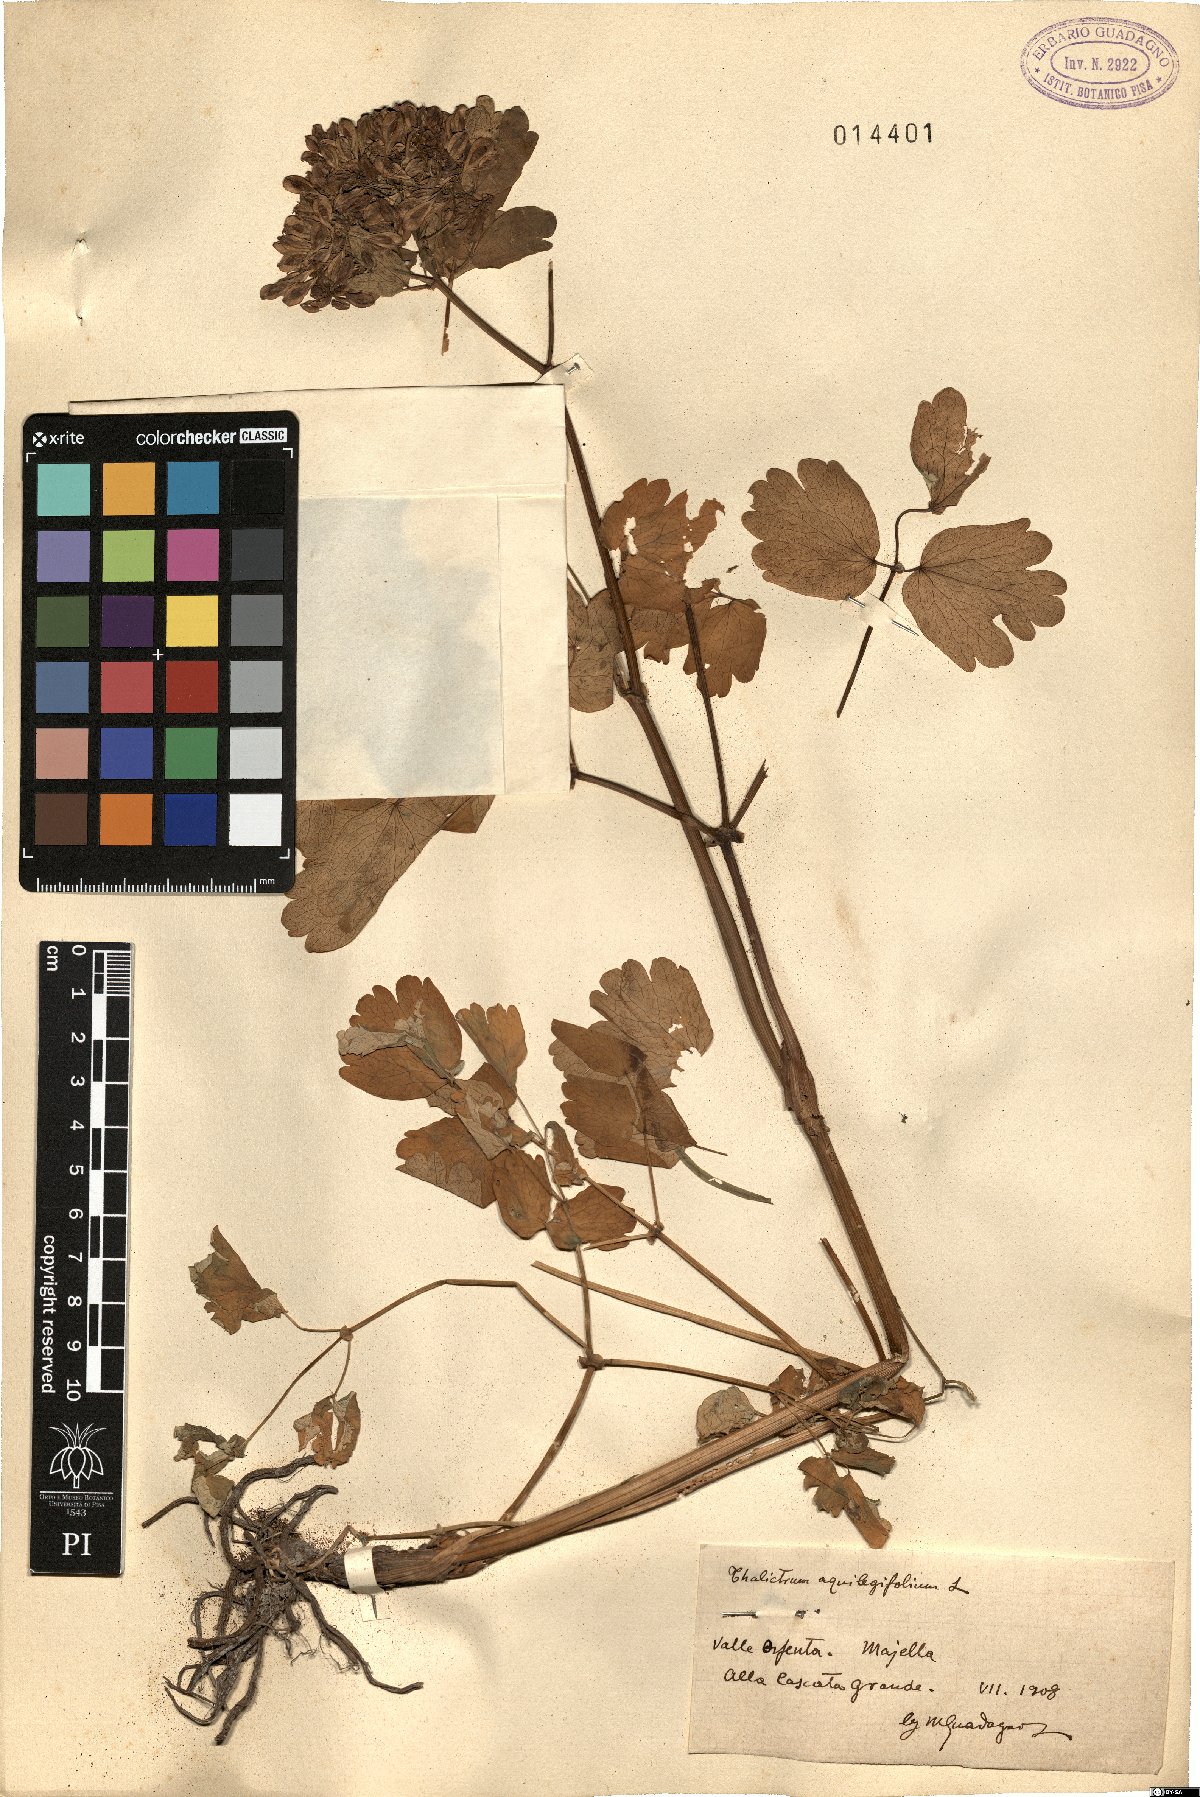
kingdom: Plantae
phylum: Tracheophyta
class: Magnoliopsida
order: Ranunculales
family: Ranunculaceae
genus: Thalictrum
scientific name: Thalictrum aquilegiifolium
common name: French meadow-rue
